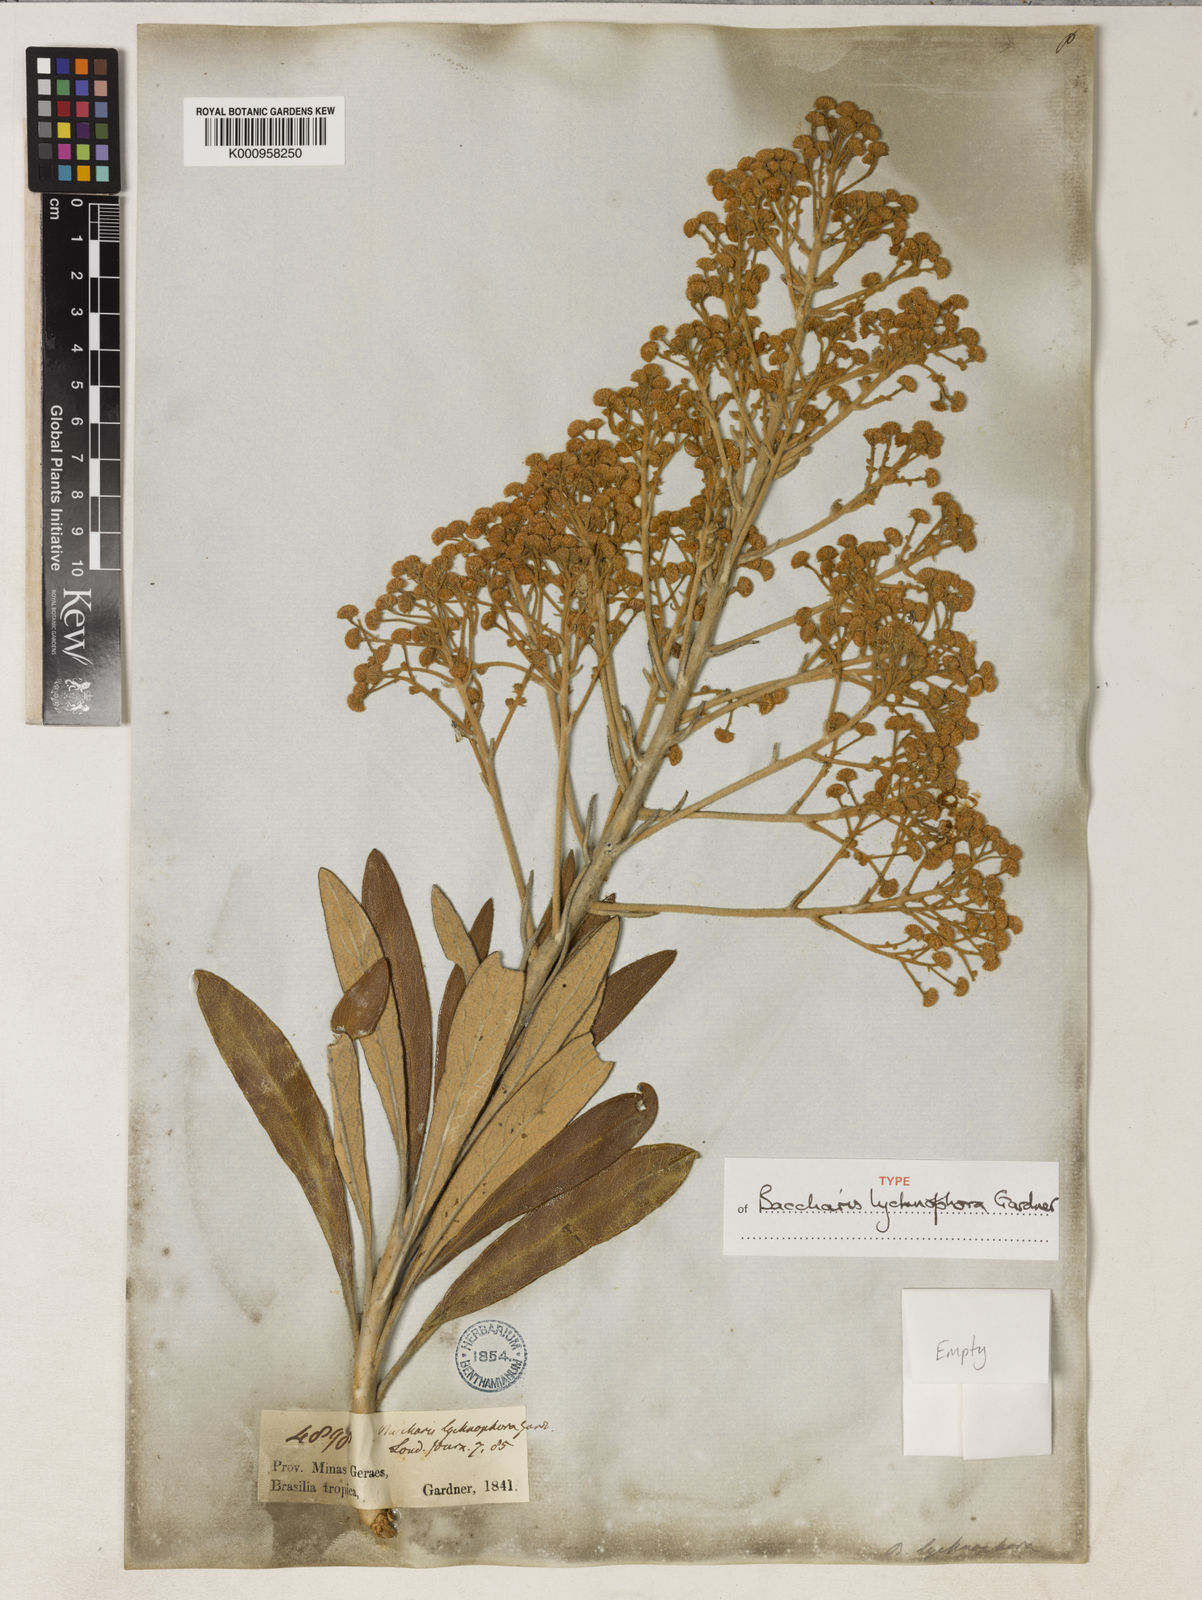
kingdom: Plantae
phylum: Tracheophyta
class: Magnoliopsida
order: Asterales
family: Asteraceae
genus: Baccharis
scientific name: Baccharis lychnophora
